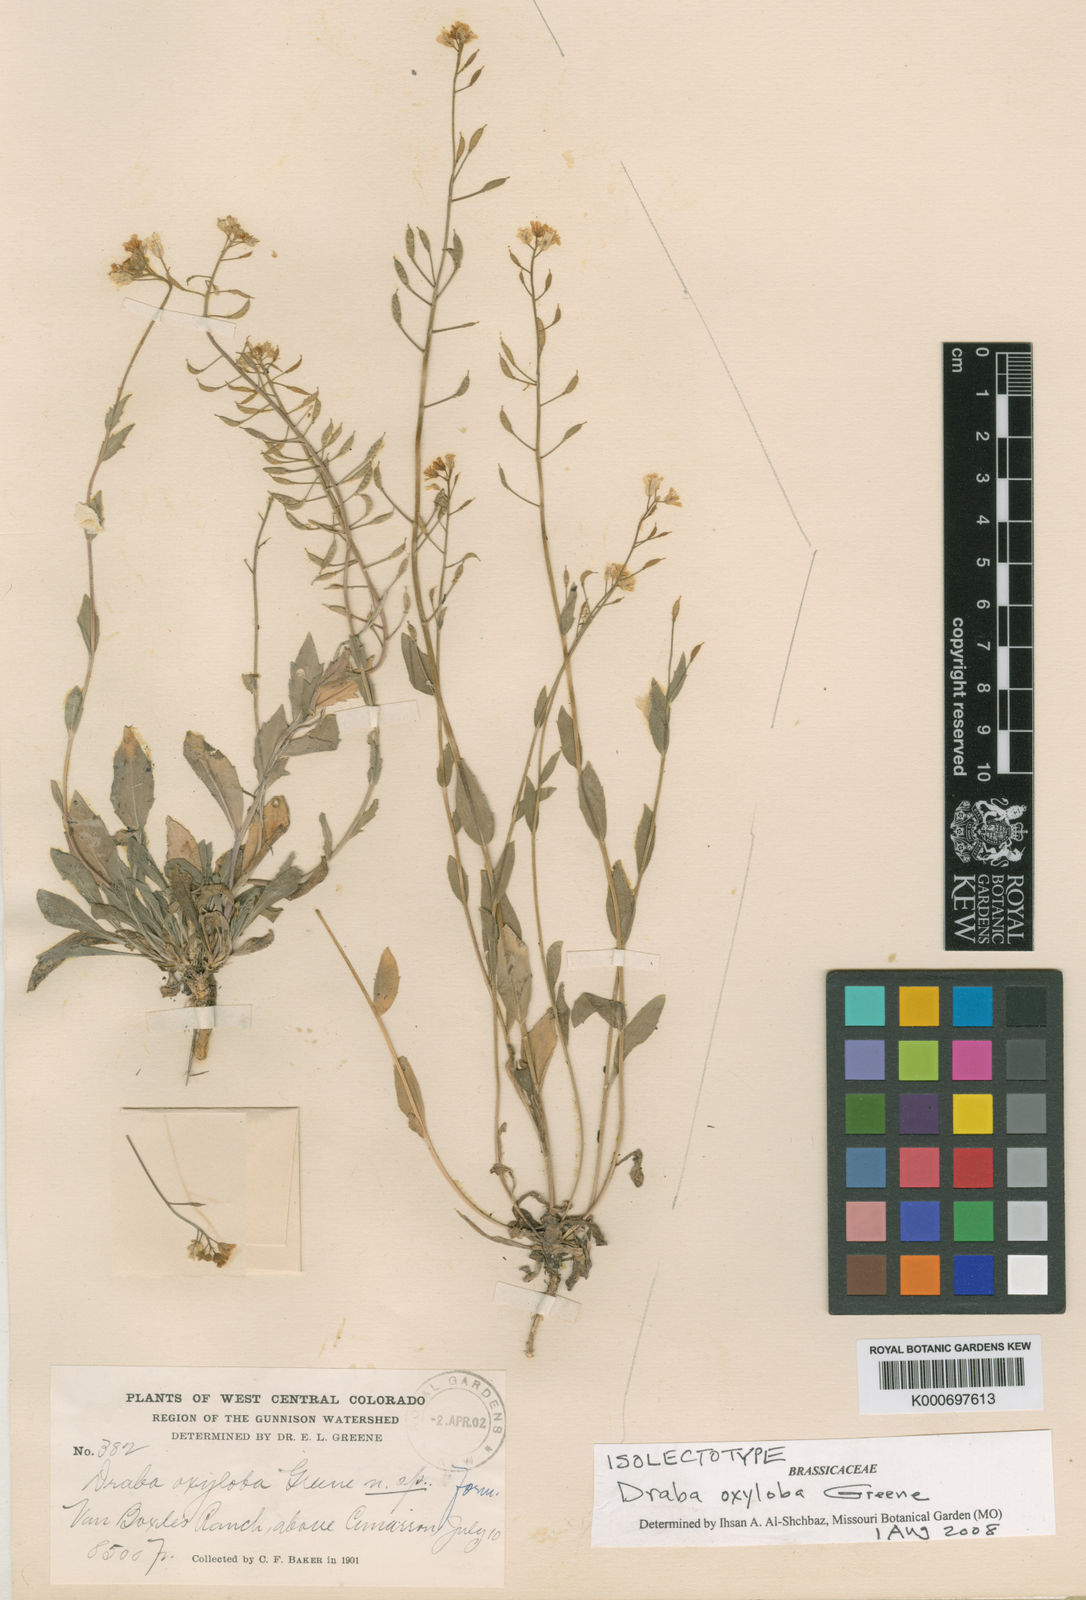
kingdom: Plantae
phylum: Tracheophyta
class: Magnoliopsida
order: Brassicales
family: Brassicaceae
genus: Draba
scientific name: Draba spectabilis
